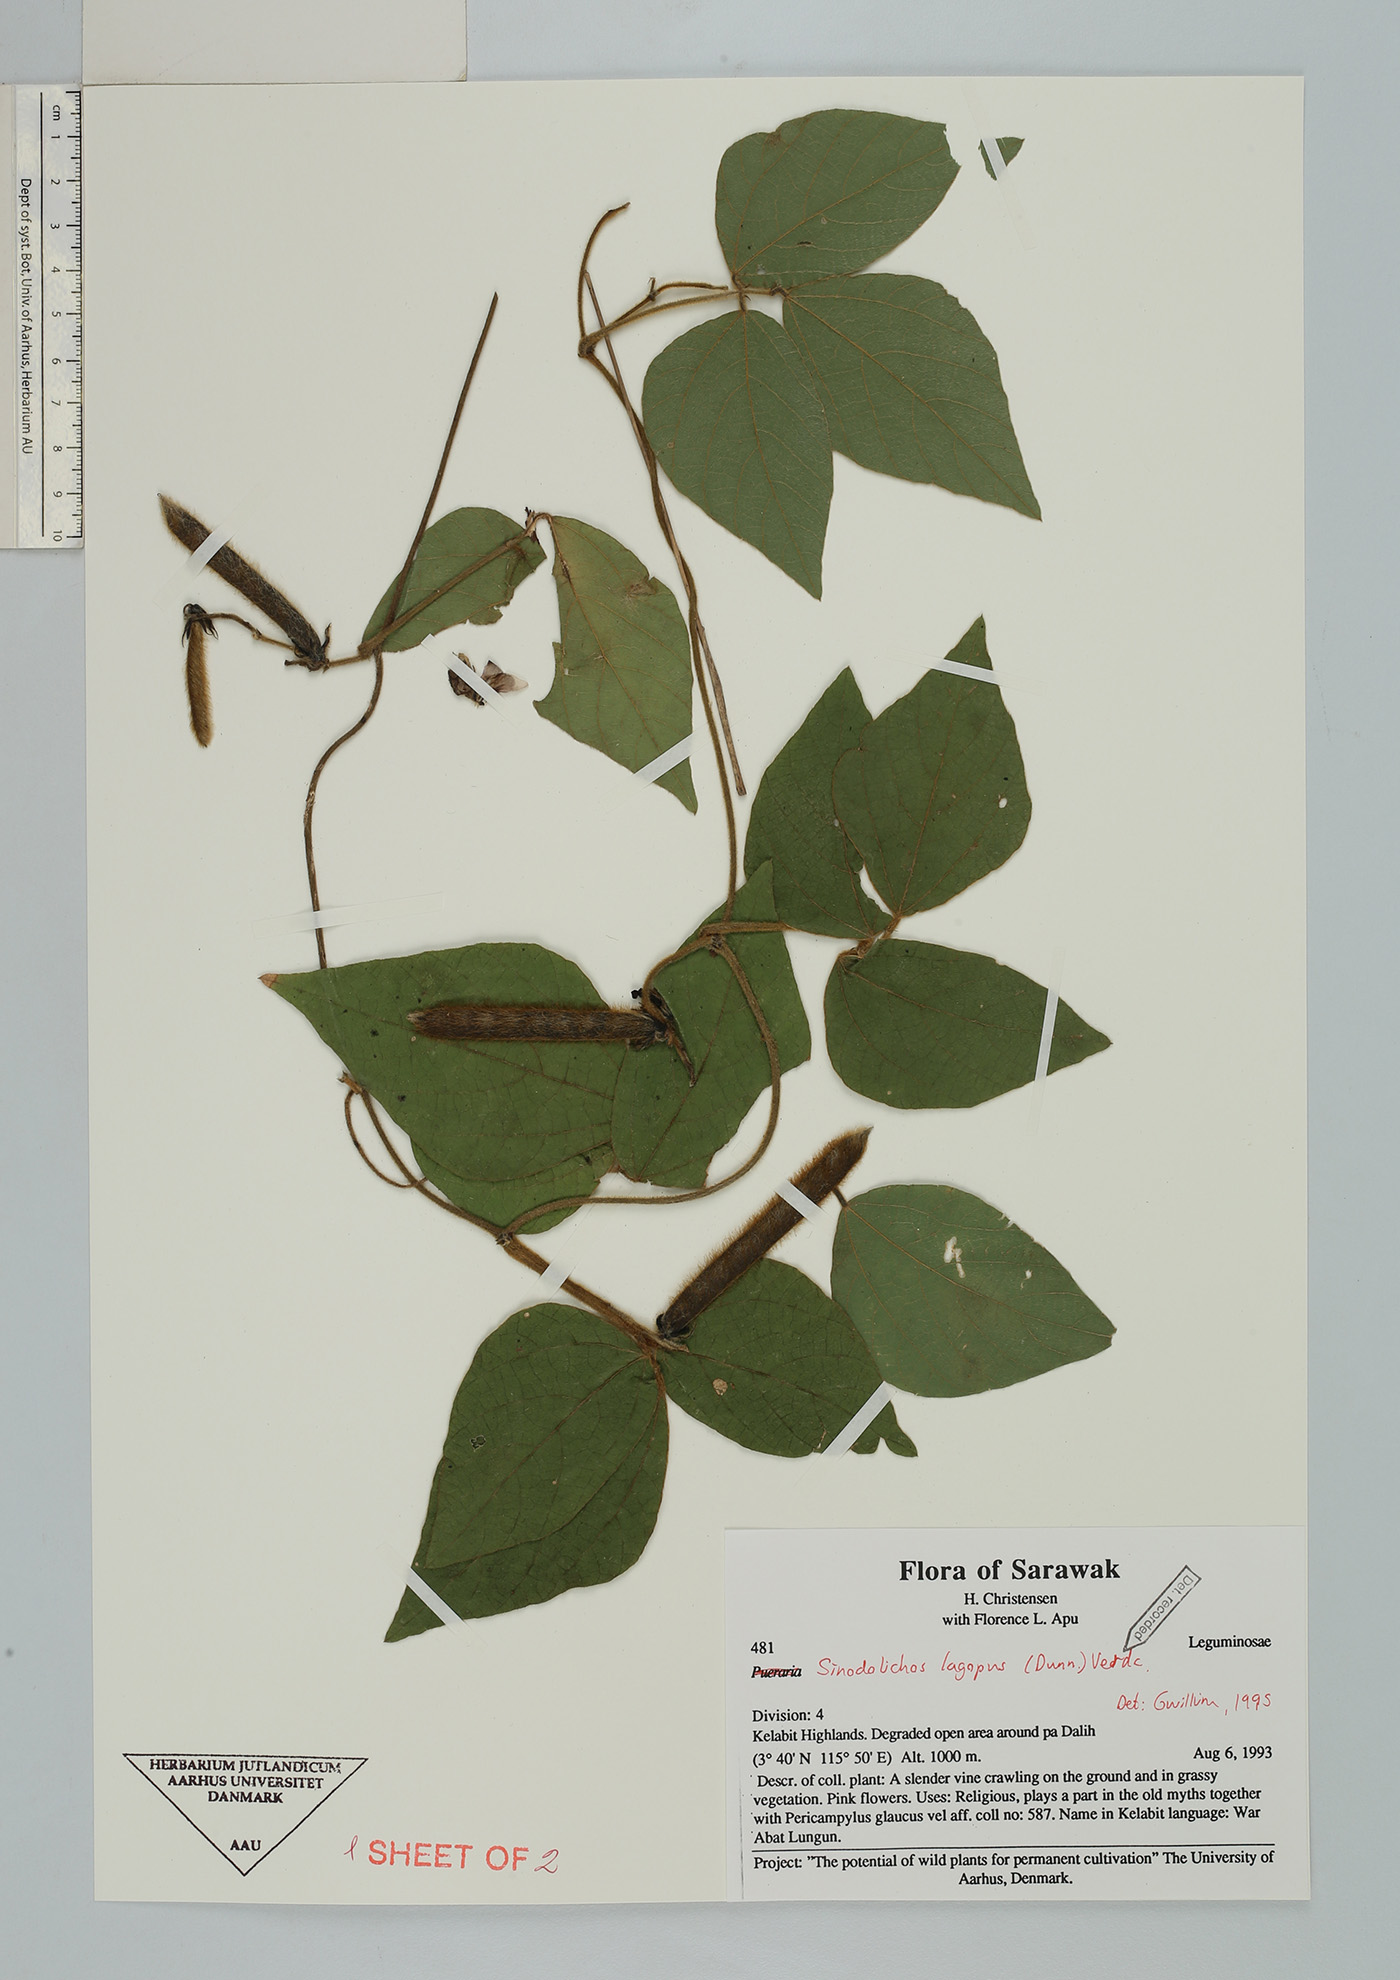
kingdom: Plantae
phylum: Tracheophyta
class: Magnoliopsida
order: Fabales
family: Fabaceae
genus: Sinodolichos
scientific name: Sinodolichos lagopus
